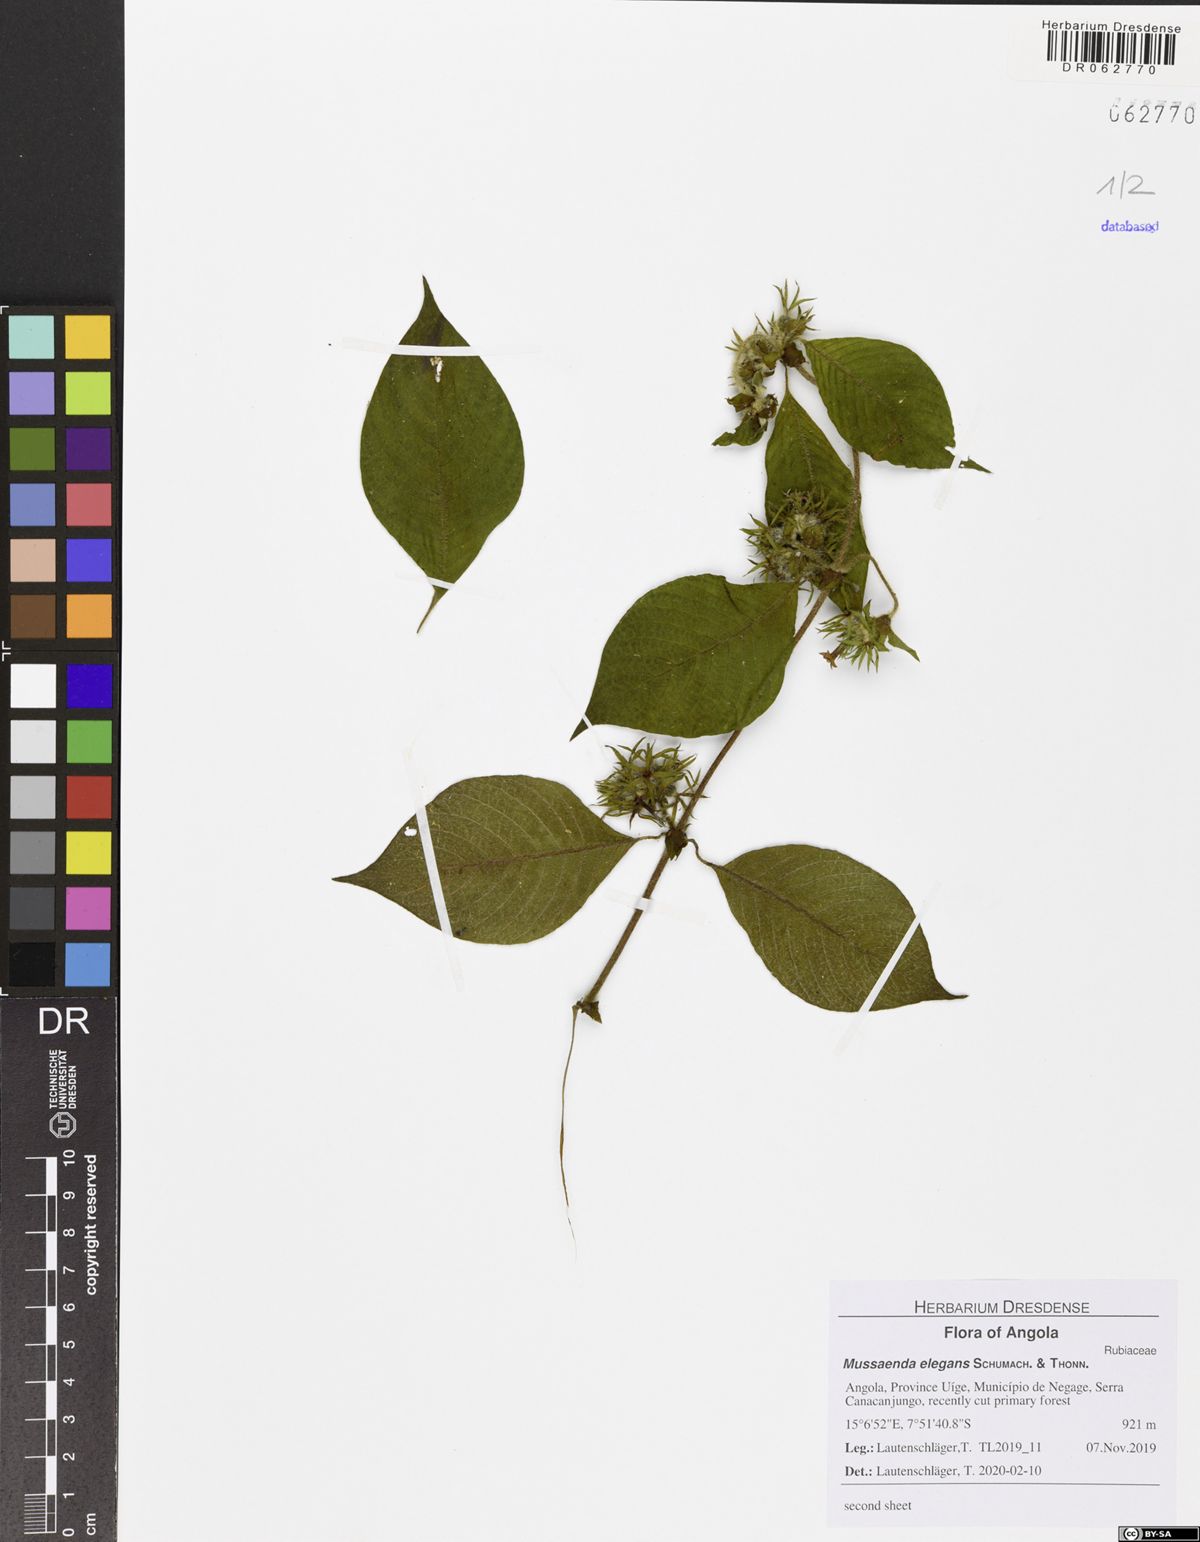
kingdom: Plantae
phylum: Tracheophyta
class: Magnoliopsida
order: Gentianales
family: Rubiaceae
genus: Sabicea
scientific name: Sabicea venosa
